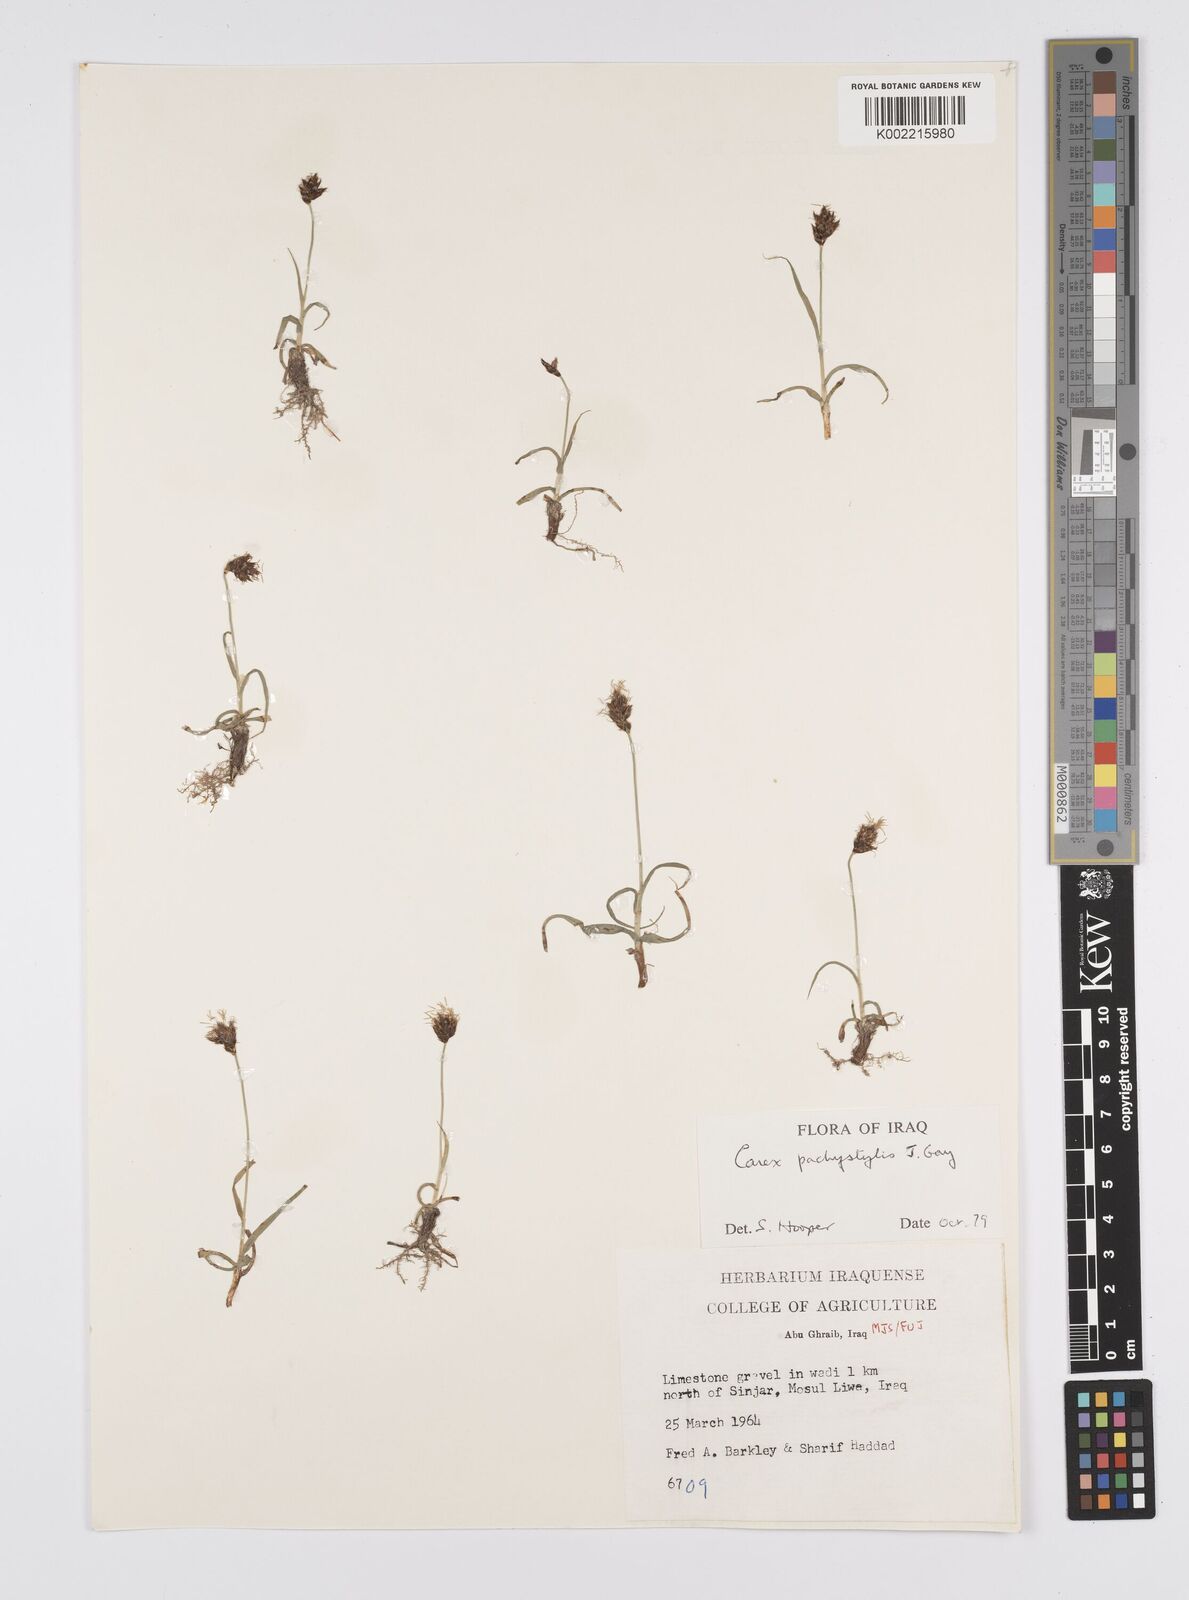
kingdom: Plantae
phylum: Tracheophyta
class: Liliopsida
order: Poales
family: Cyperaceae
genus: Carex
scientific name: Carex pachystylis
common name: Thick-stem sedge
